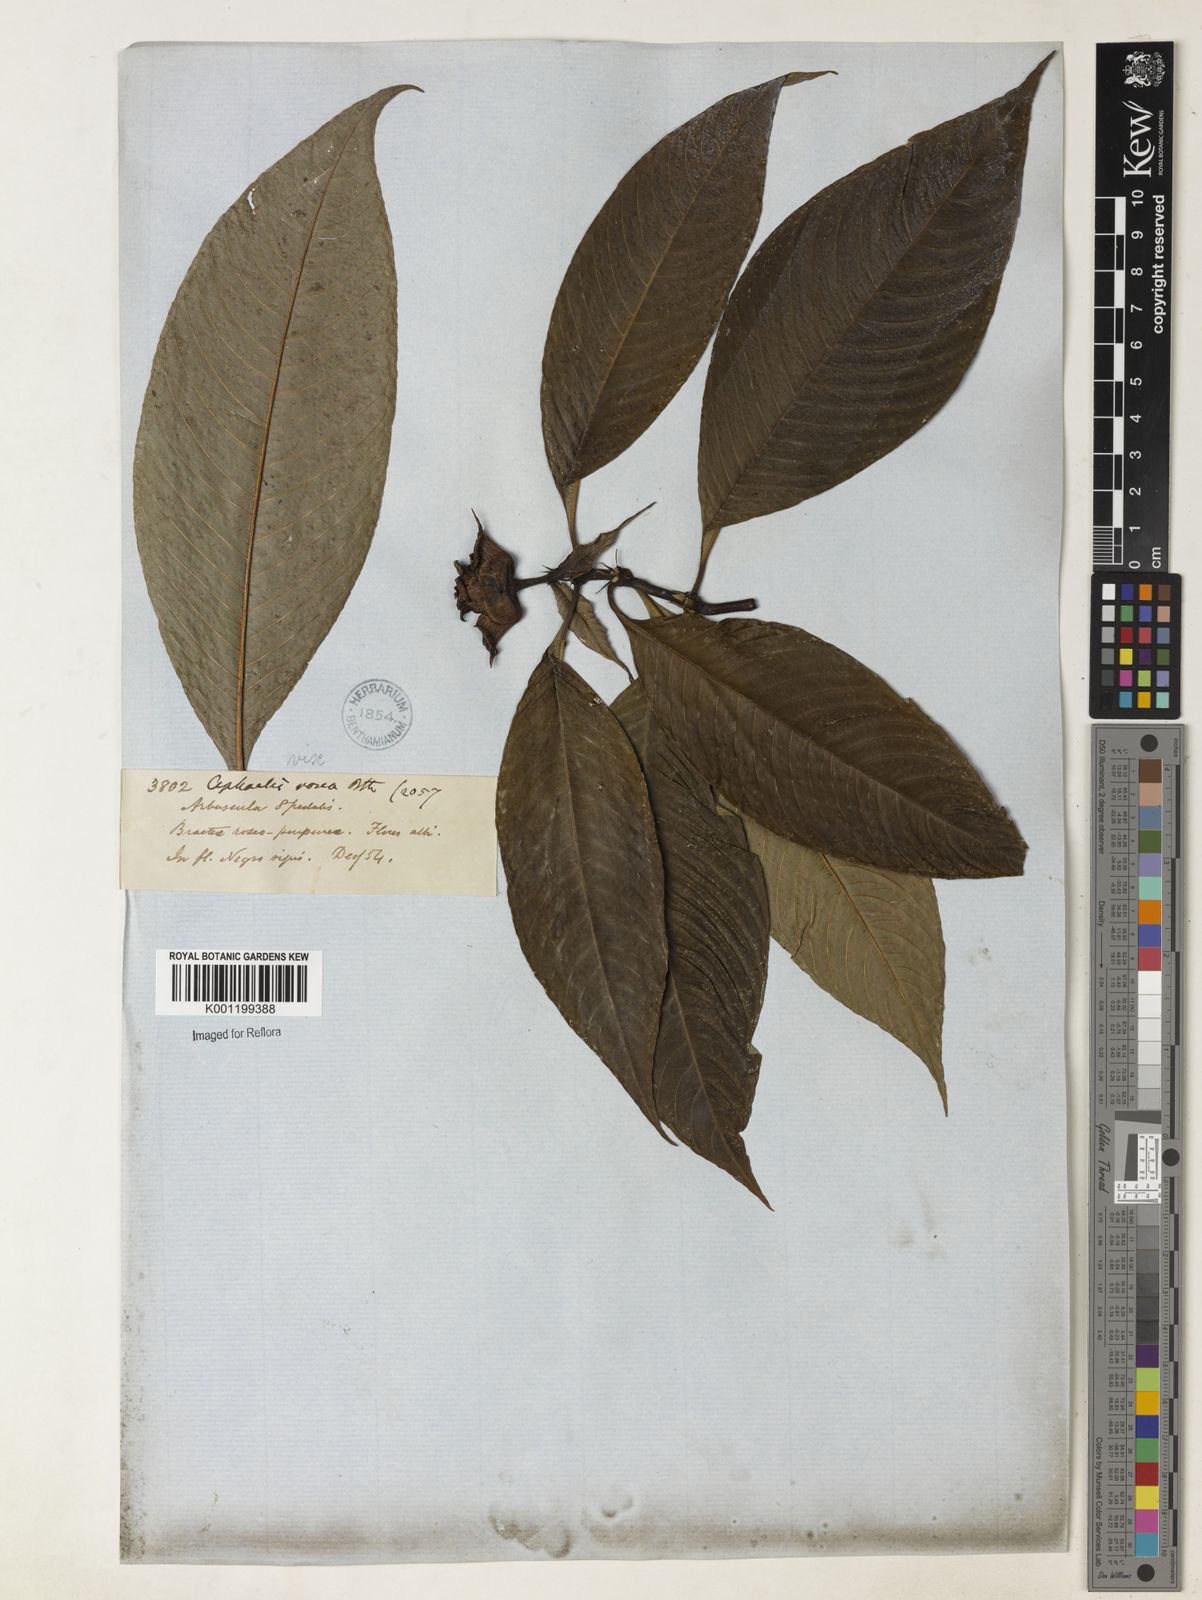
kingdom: Plantae
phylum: Tracheophyta
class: Magnoliopsida
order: Gentianales
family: Rubiaceae
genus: Psychotria
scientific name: Psychotria
